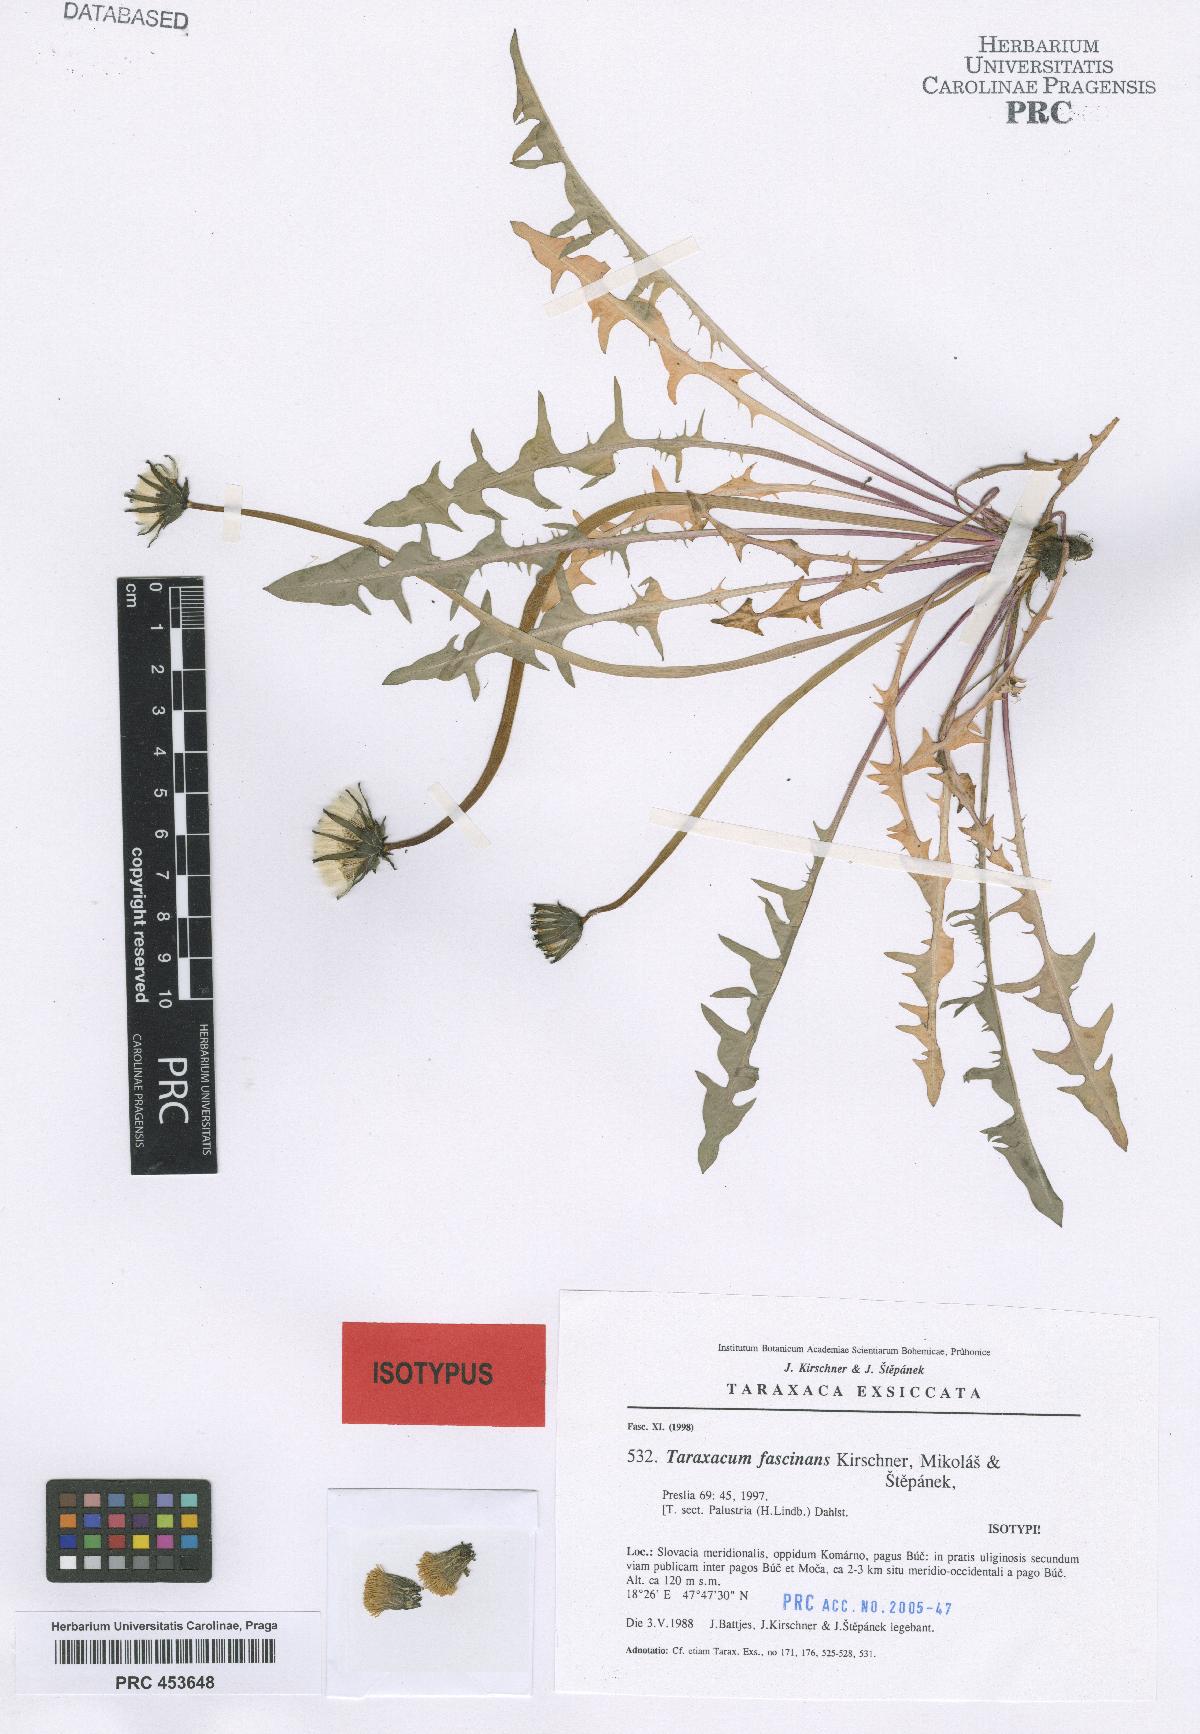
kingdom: Plantae
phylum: Tracheophyta
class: Magnoliopsida
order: Asterales
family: Asteraceae
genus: Taraxacum
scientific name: Taraxacum fascinans
